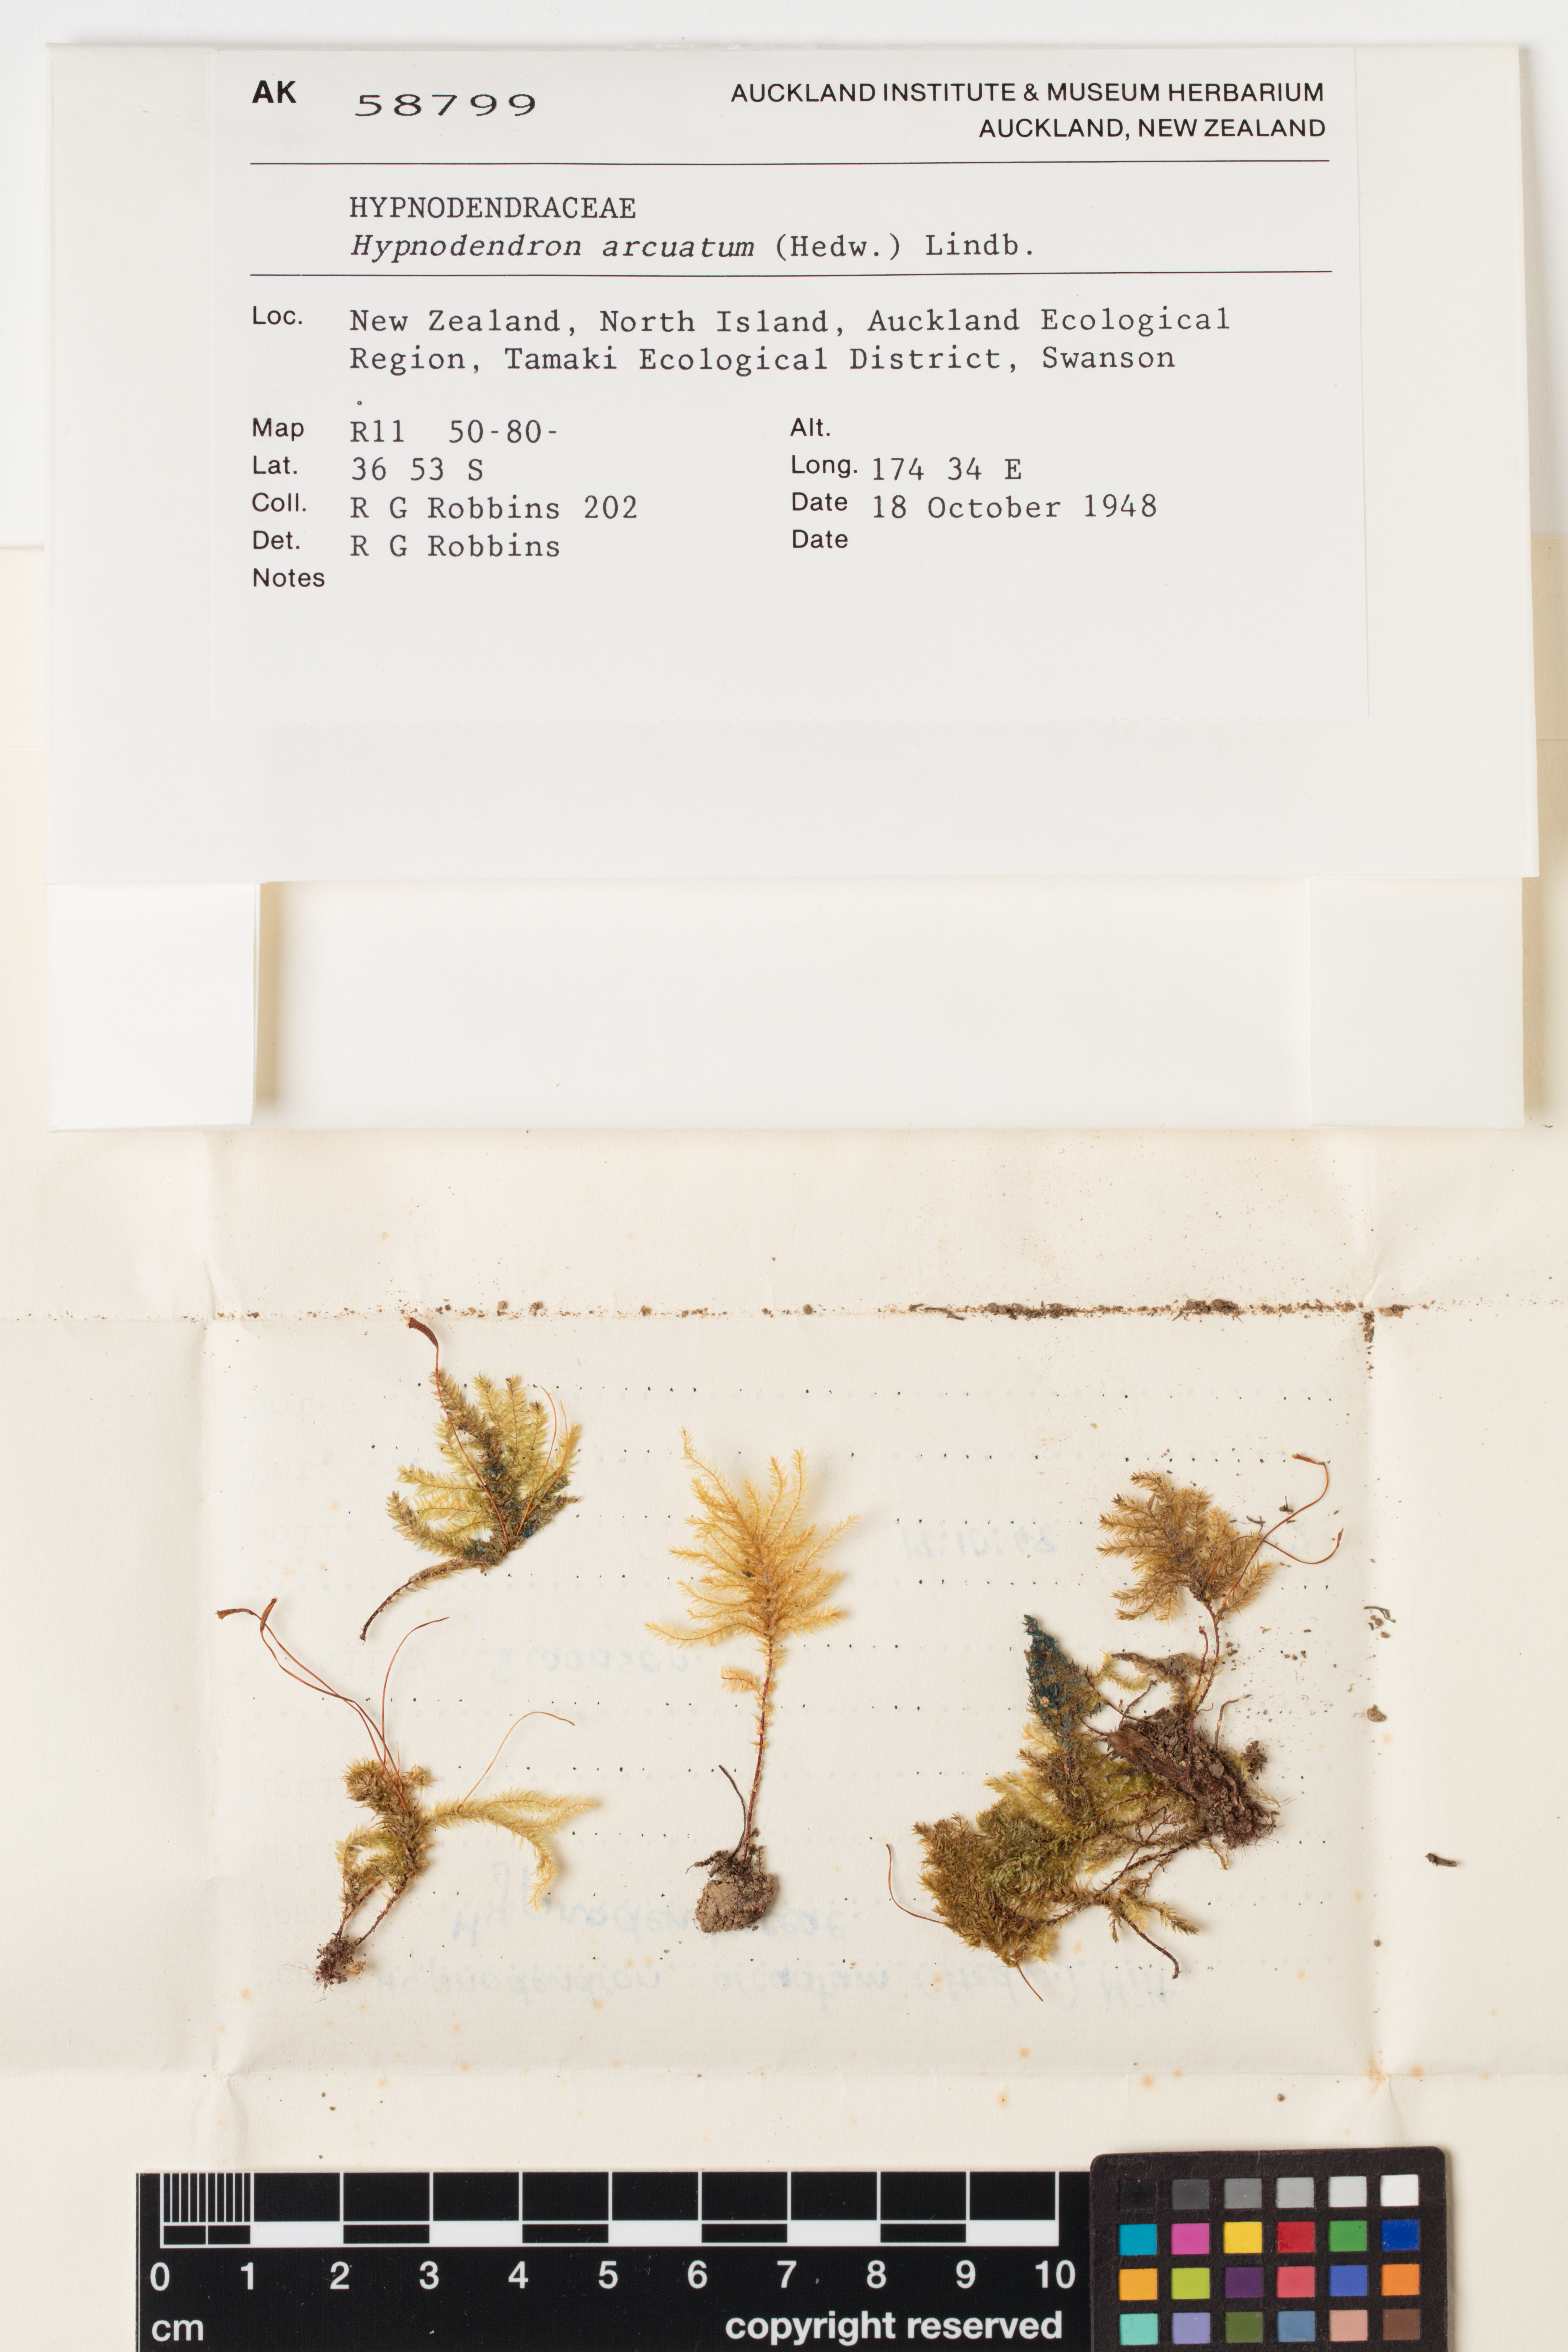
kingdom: Plantae
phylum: Bryophyta
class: Bryopsida
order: Hypnodendrales
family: Spiridentaceae
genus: Hypnodendron
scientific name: Hypnodendron arcuatum
